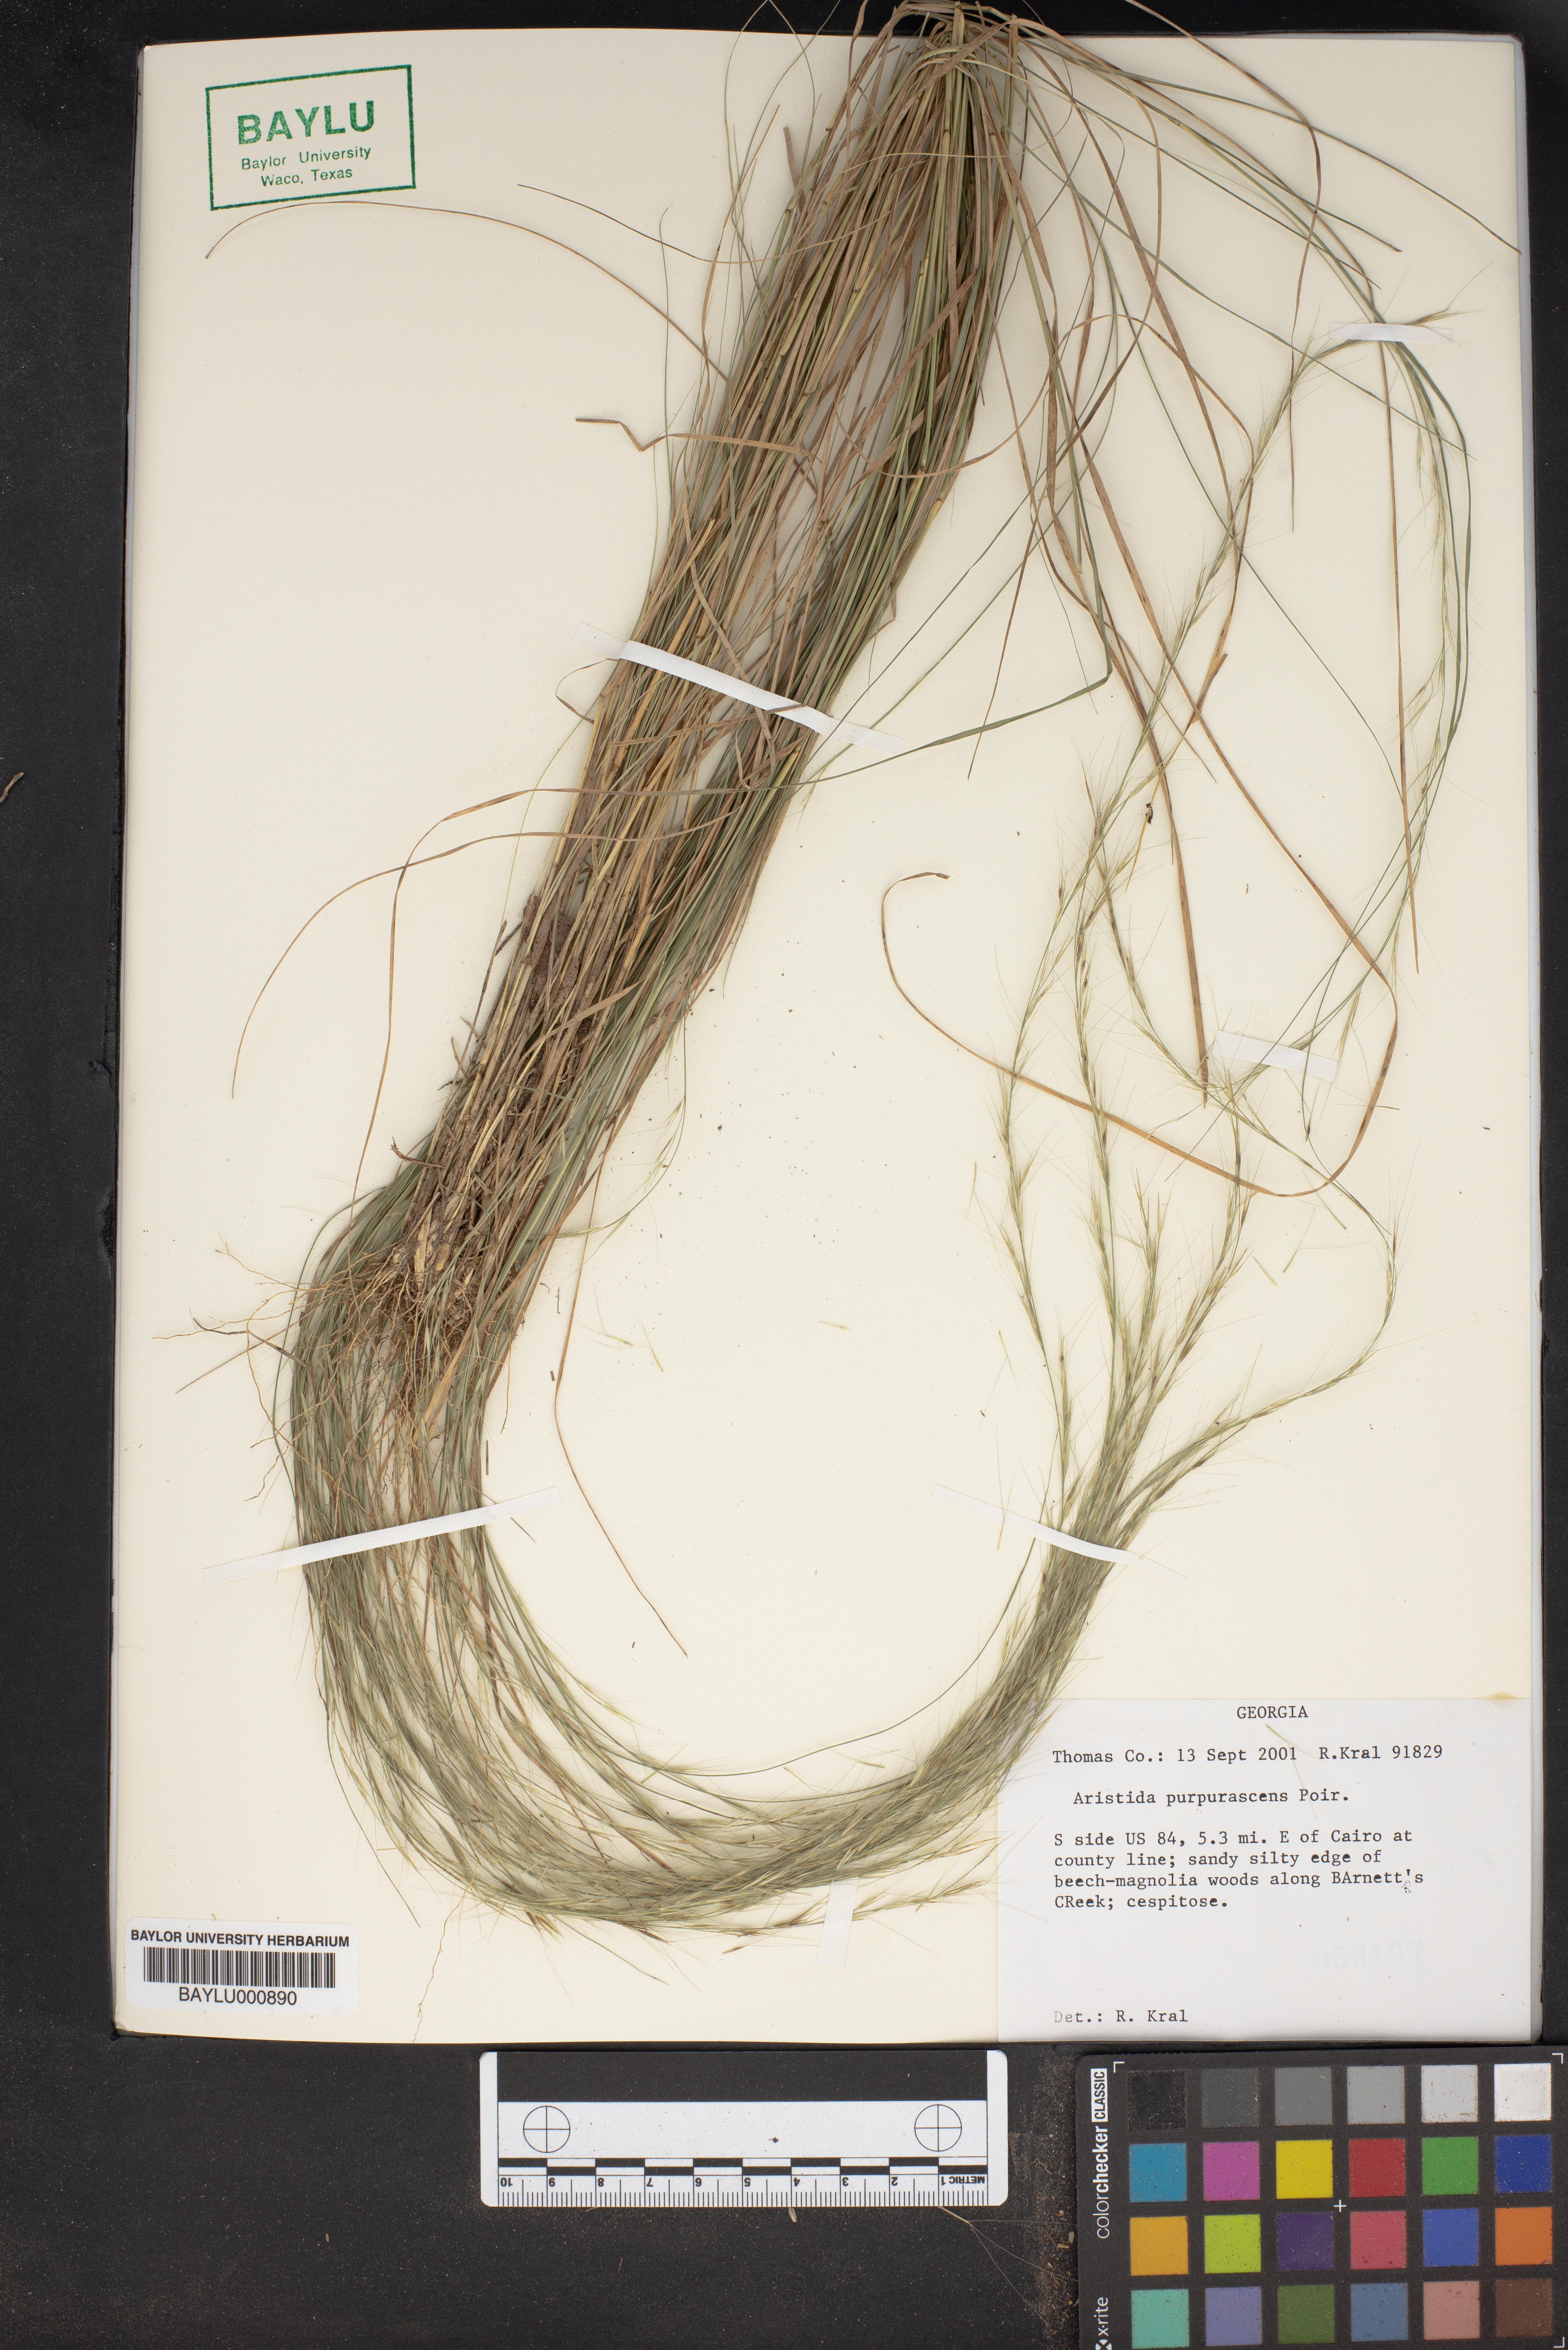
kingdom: Plantae
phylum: Tracheophyta
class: Liliopsida
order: Poales
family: Poaceae
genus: Aristida
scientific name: Aristida purpurascens
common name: Arrow-feather
